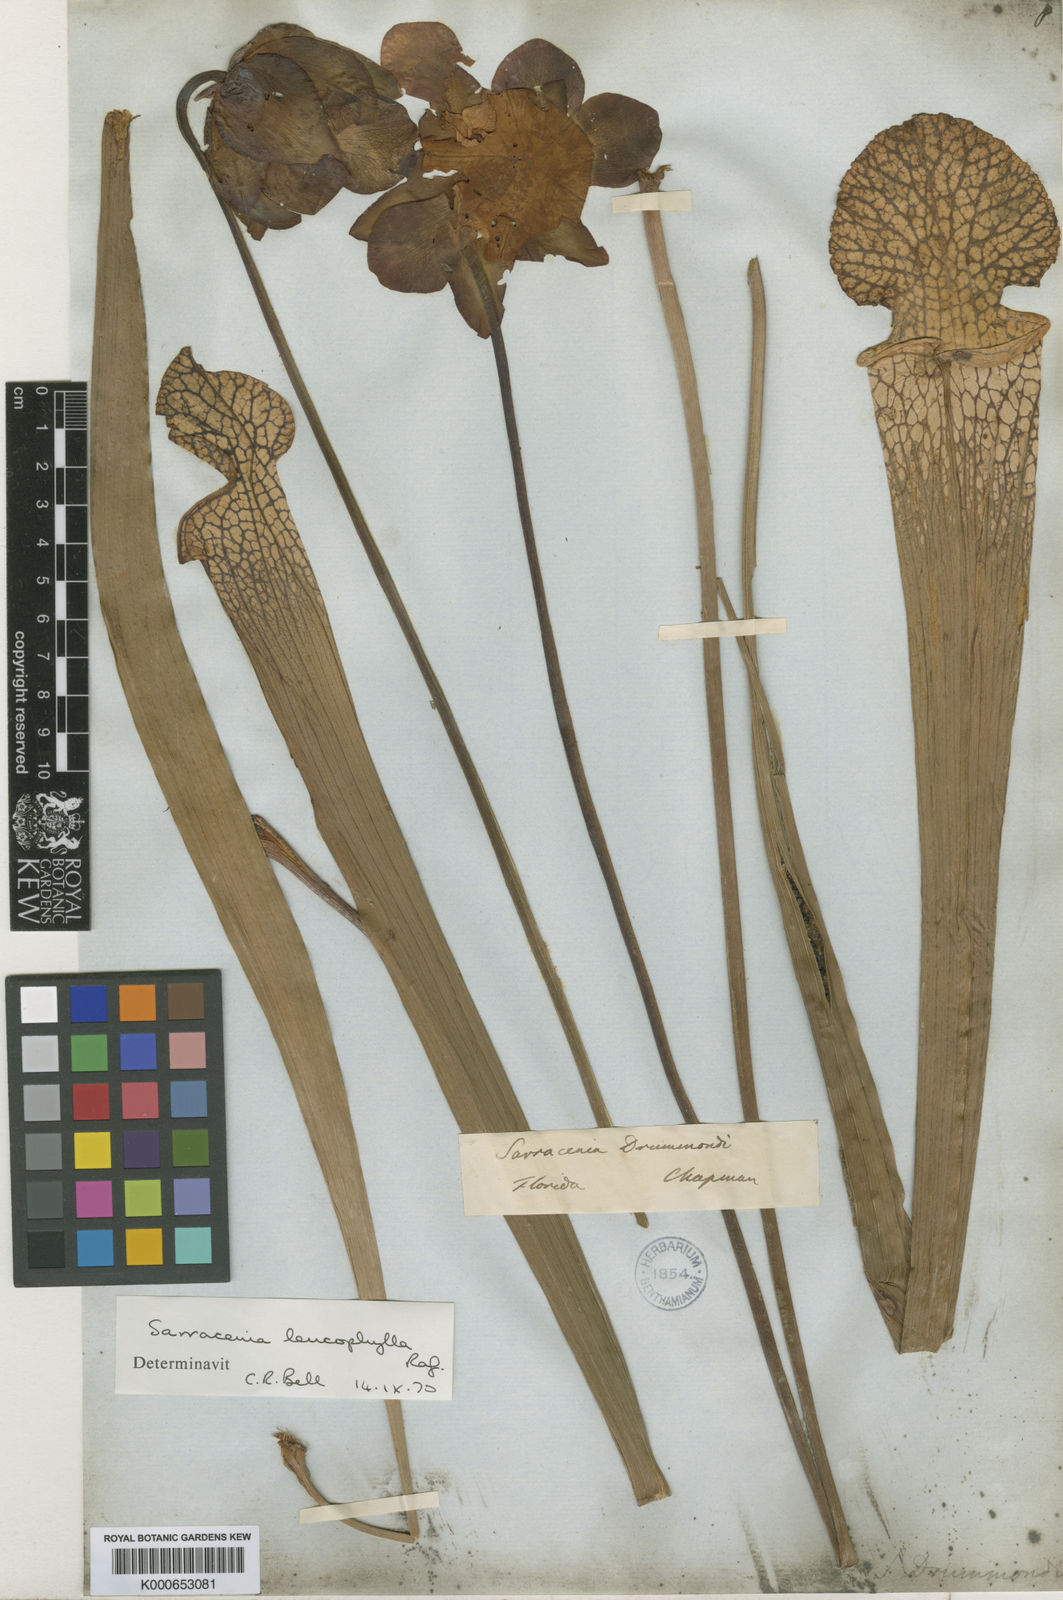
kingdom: Plantae
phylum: Tracheophyta
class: Magnoliopsida
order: Ericales
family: Sarraceniaceae
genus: Sarracenia
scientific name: Sarracenia leucophylla
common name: Purple trumpetleaf
